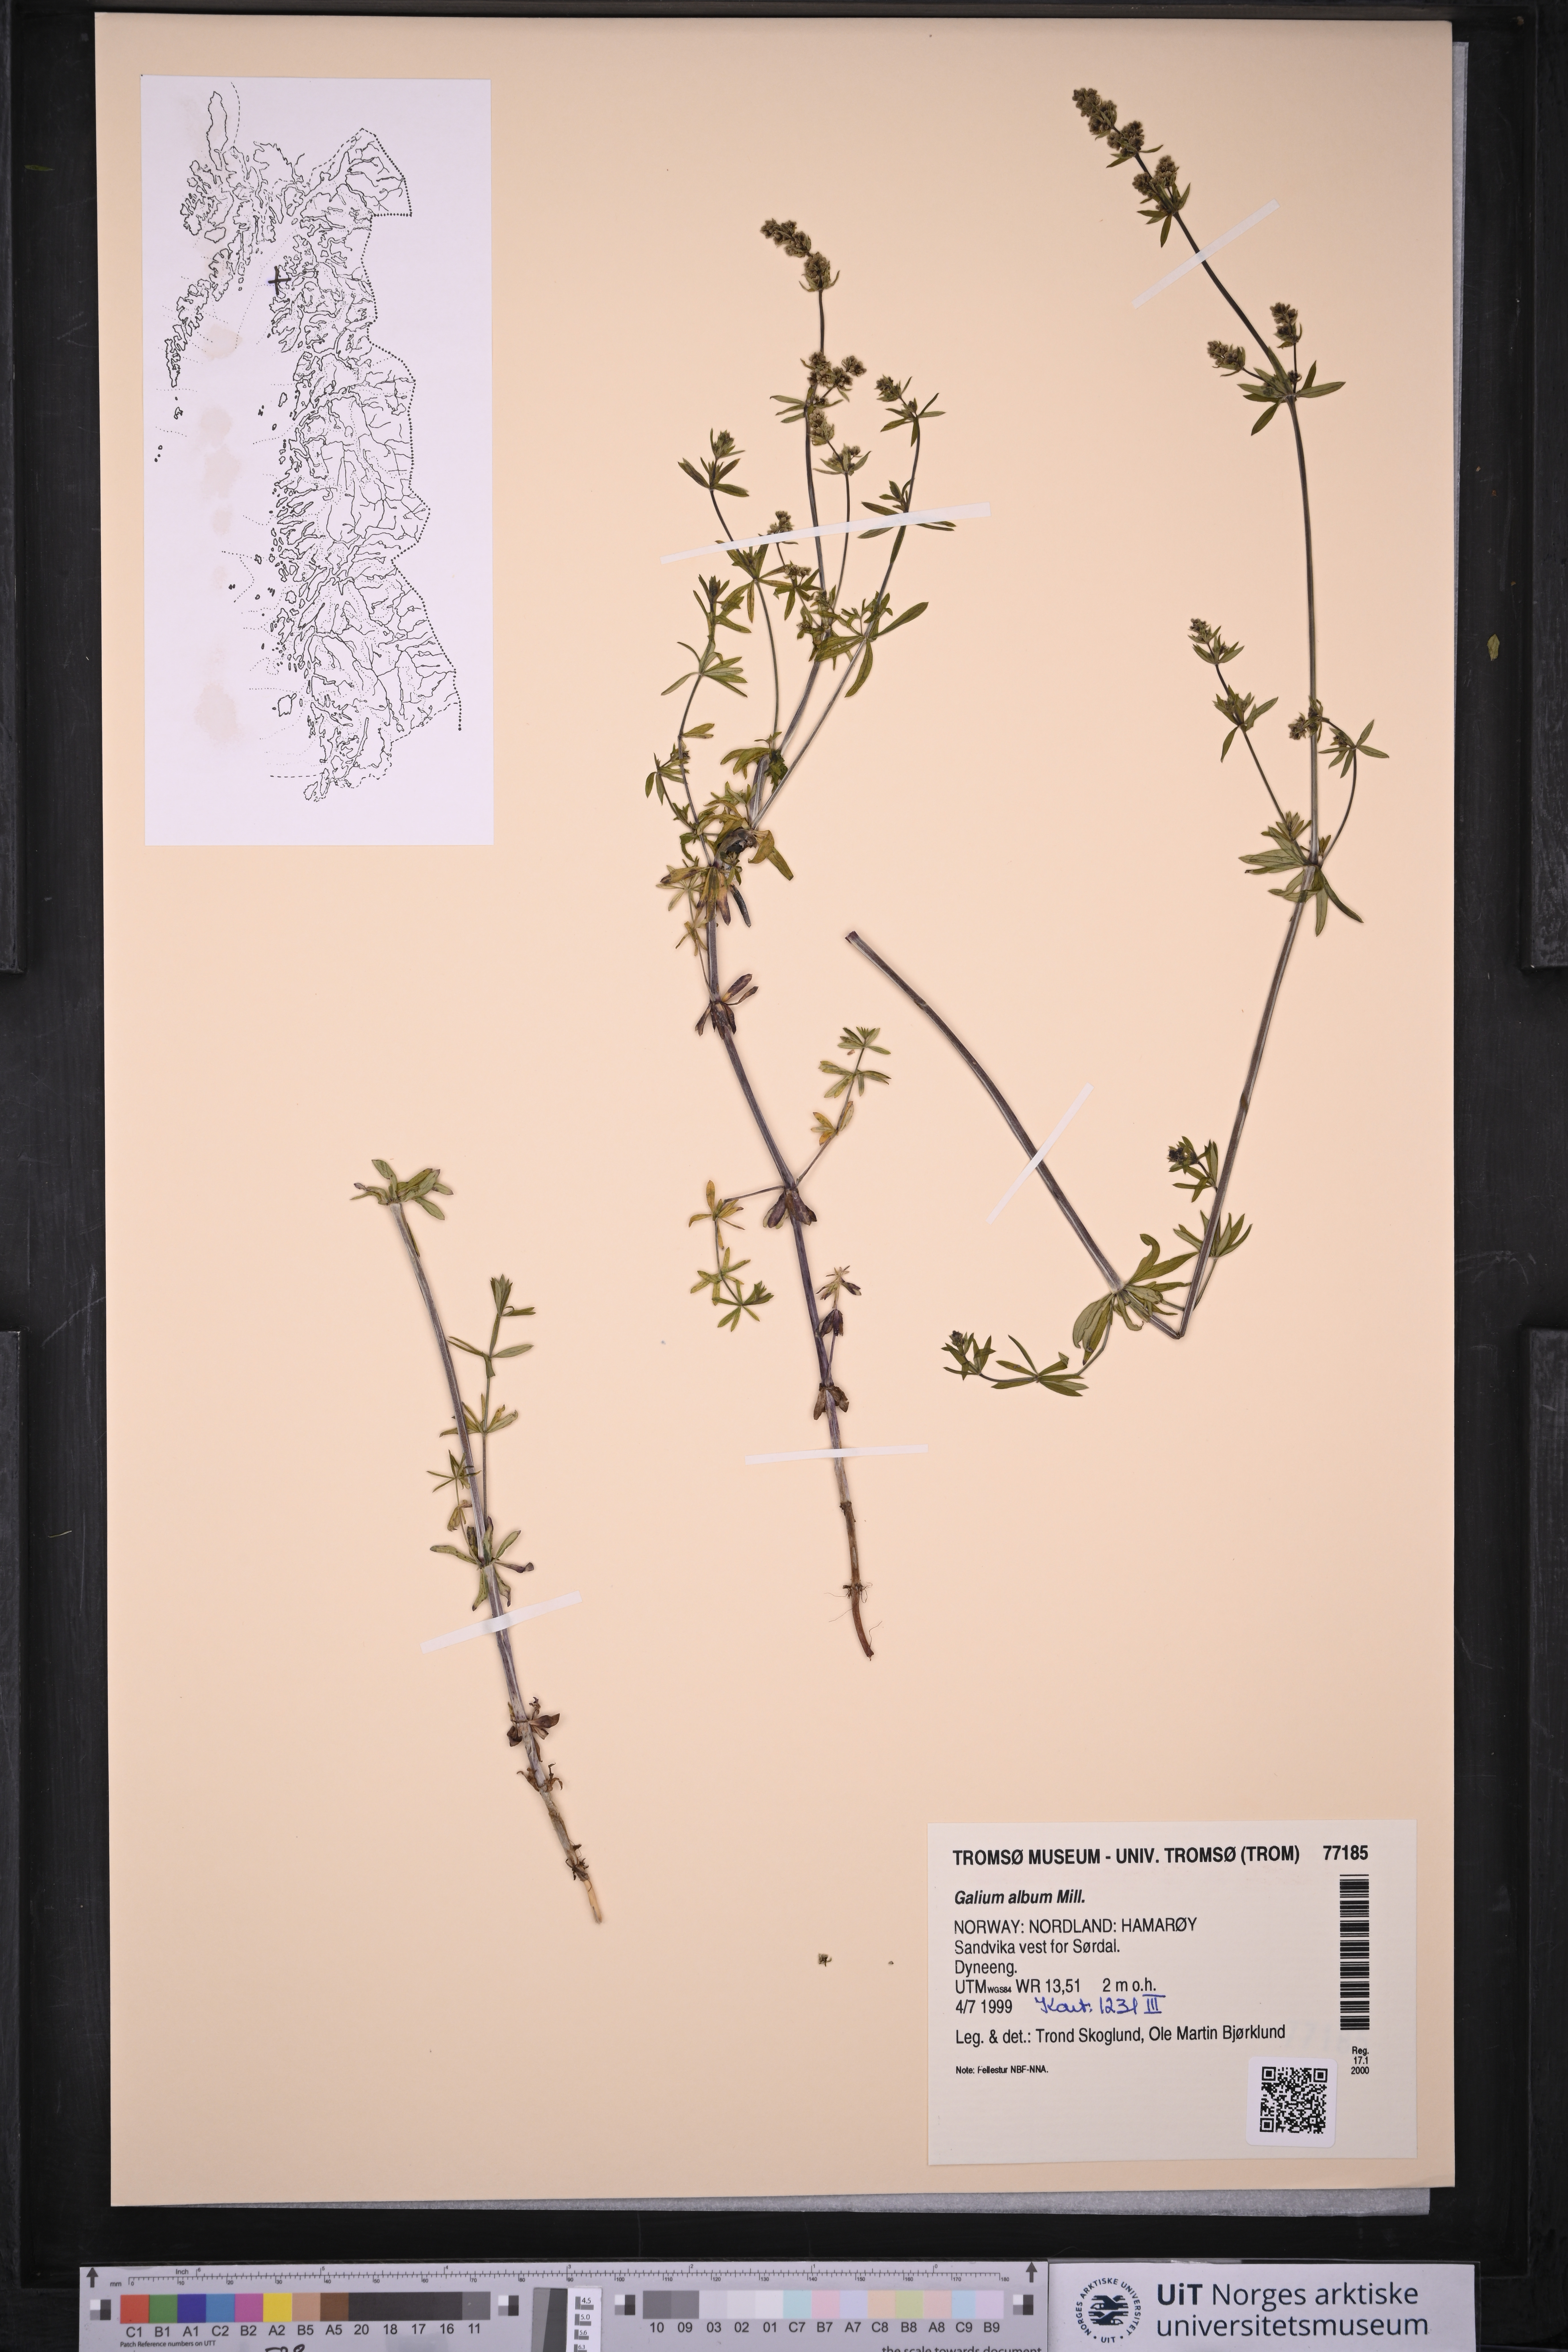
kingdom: Plantae
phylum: Tracheophyta
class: Magnoliopsida
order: Gentianales
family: Rubiaceae
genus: Galium
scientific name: Galium album
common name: White bedstraw
